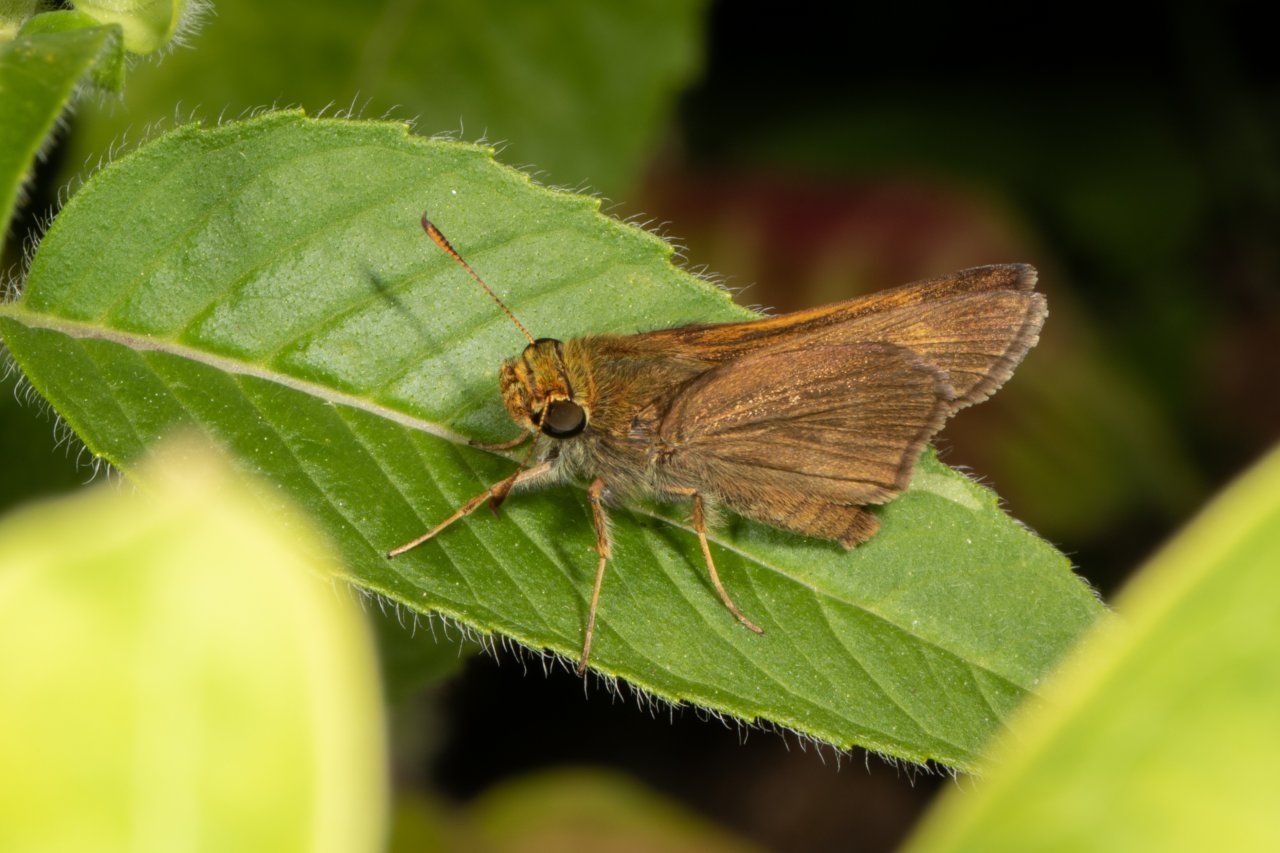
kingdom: Animalia
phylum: Arthropoda
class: Insecta
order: Lepidoptera
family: Hesperiidae
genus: Euphyes
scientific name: Euphyes vestris
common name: Dun Skipper
